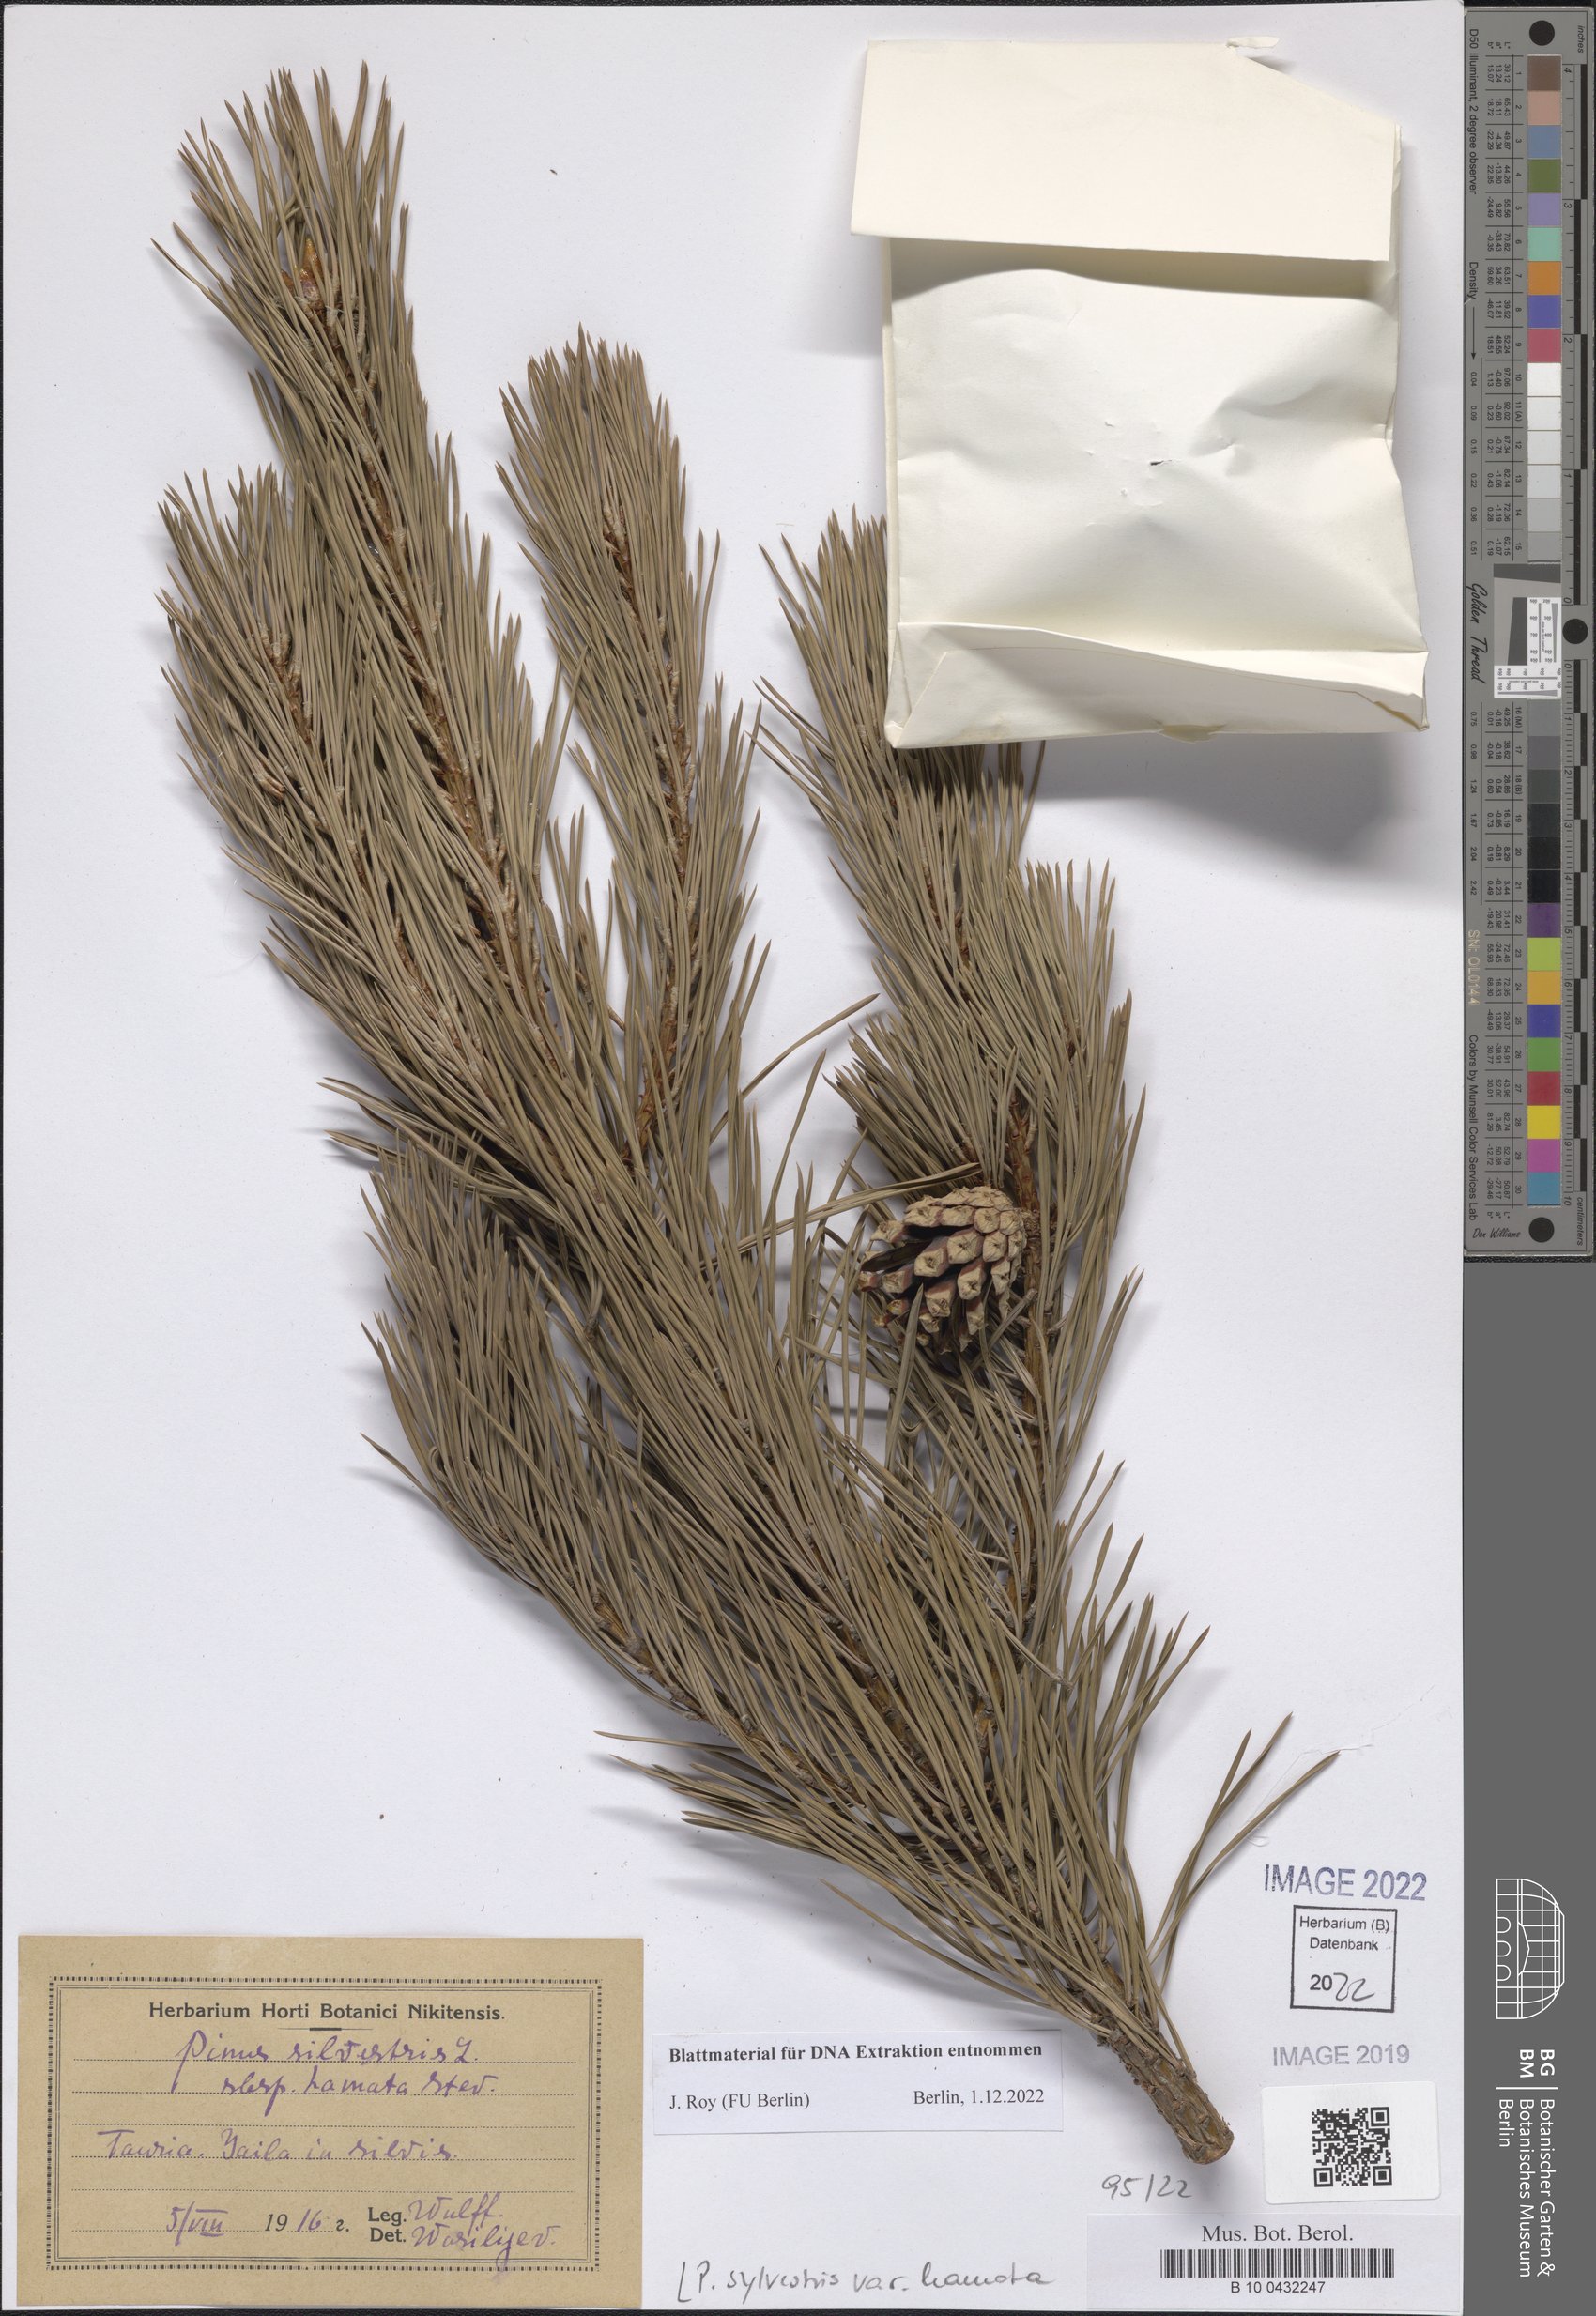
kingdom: Plantae
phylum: Tracheophyta
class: Pinopsida
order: Pinales
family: Pinaceae
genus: Pinus
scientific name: Pinus sylvestris
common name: Scots pine
